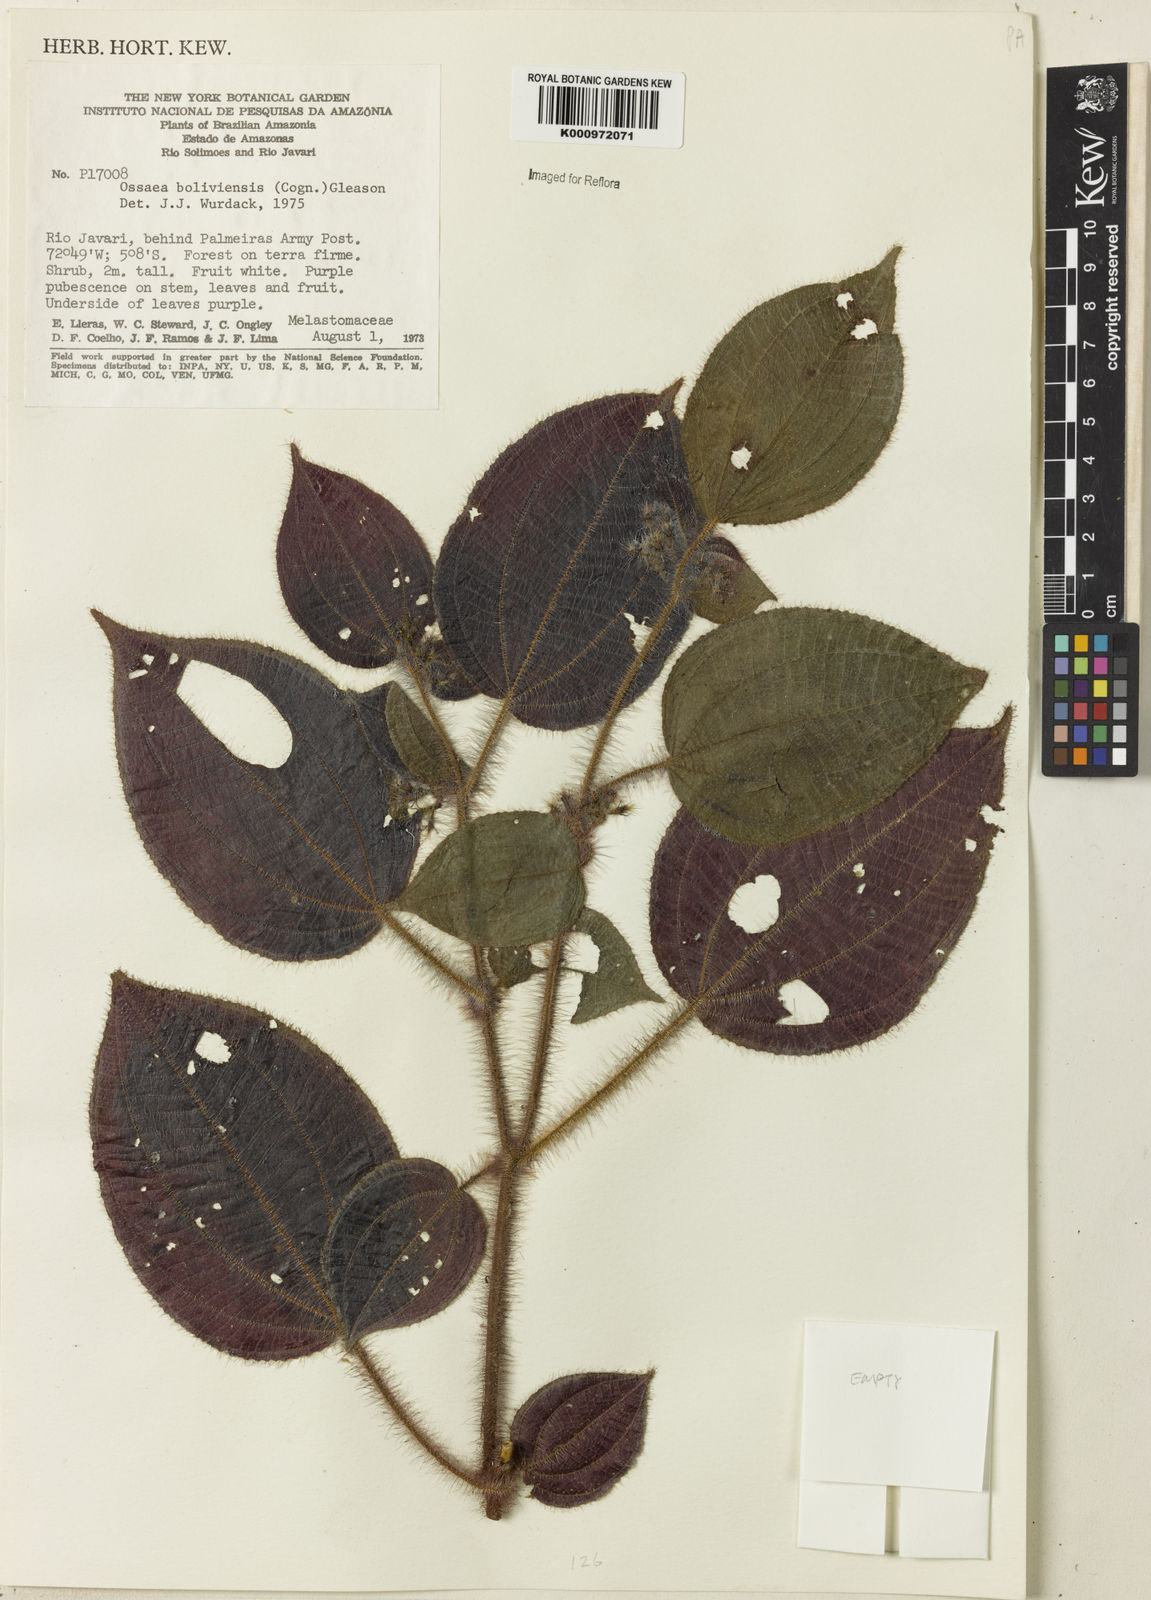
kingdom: Plantae
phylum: Tracheophyta
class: Magnoliopsida
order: Myrtales
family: Melastomataceae
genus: Miconia
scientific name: Miconia violascens
